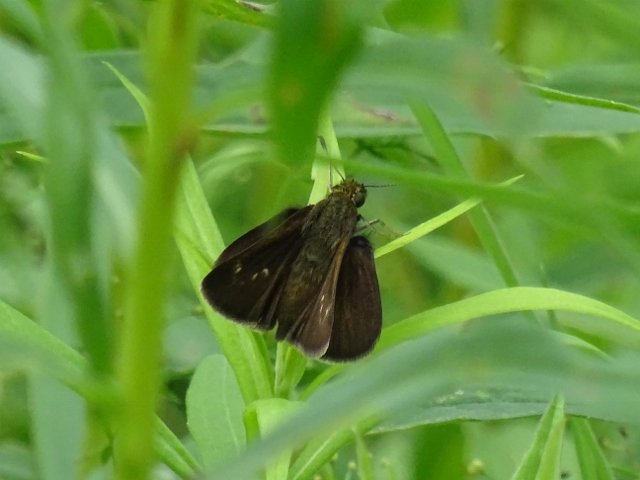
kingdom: Animalia
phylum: Arthropoda
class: Insecta
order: Lepidoptera
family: Hesperiidae
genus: Polites
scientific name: Polites egeremet
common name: Northern Broken-Dash
